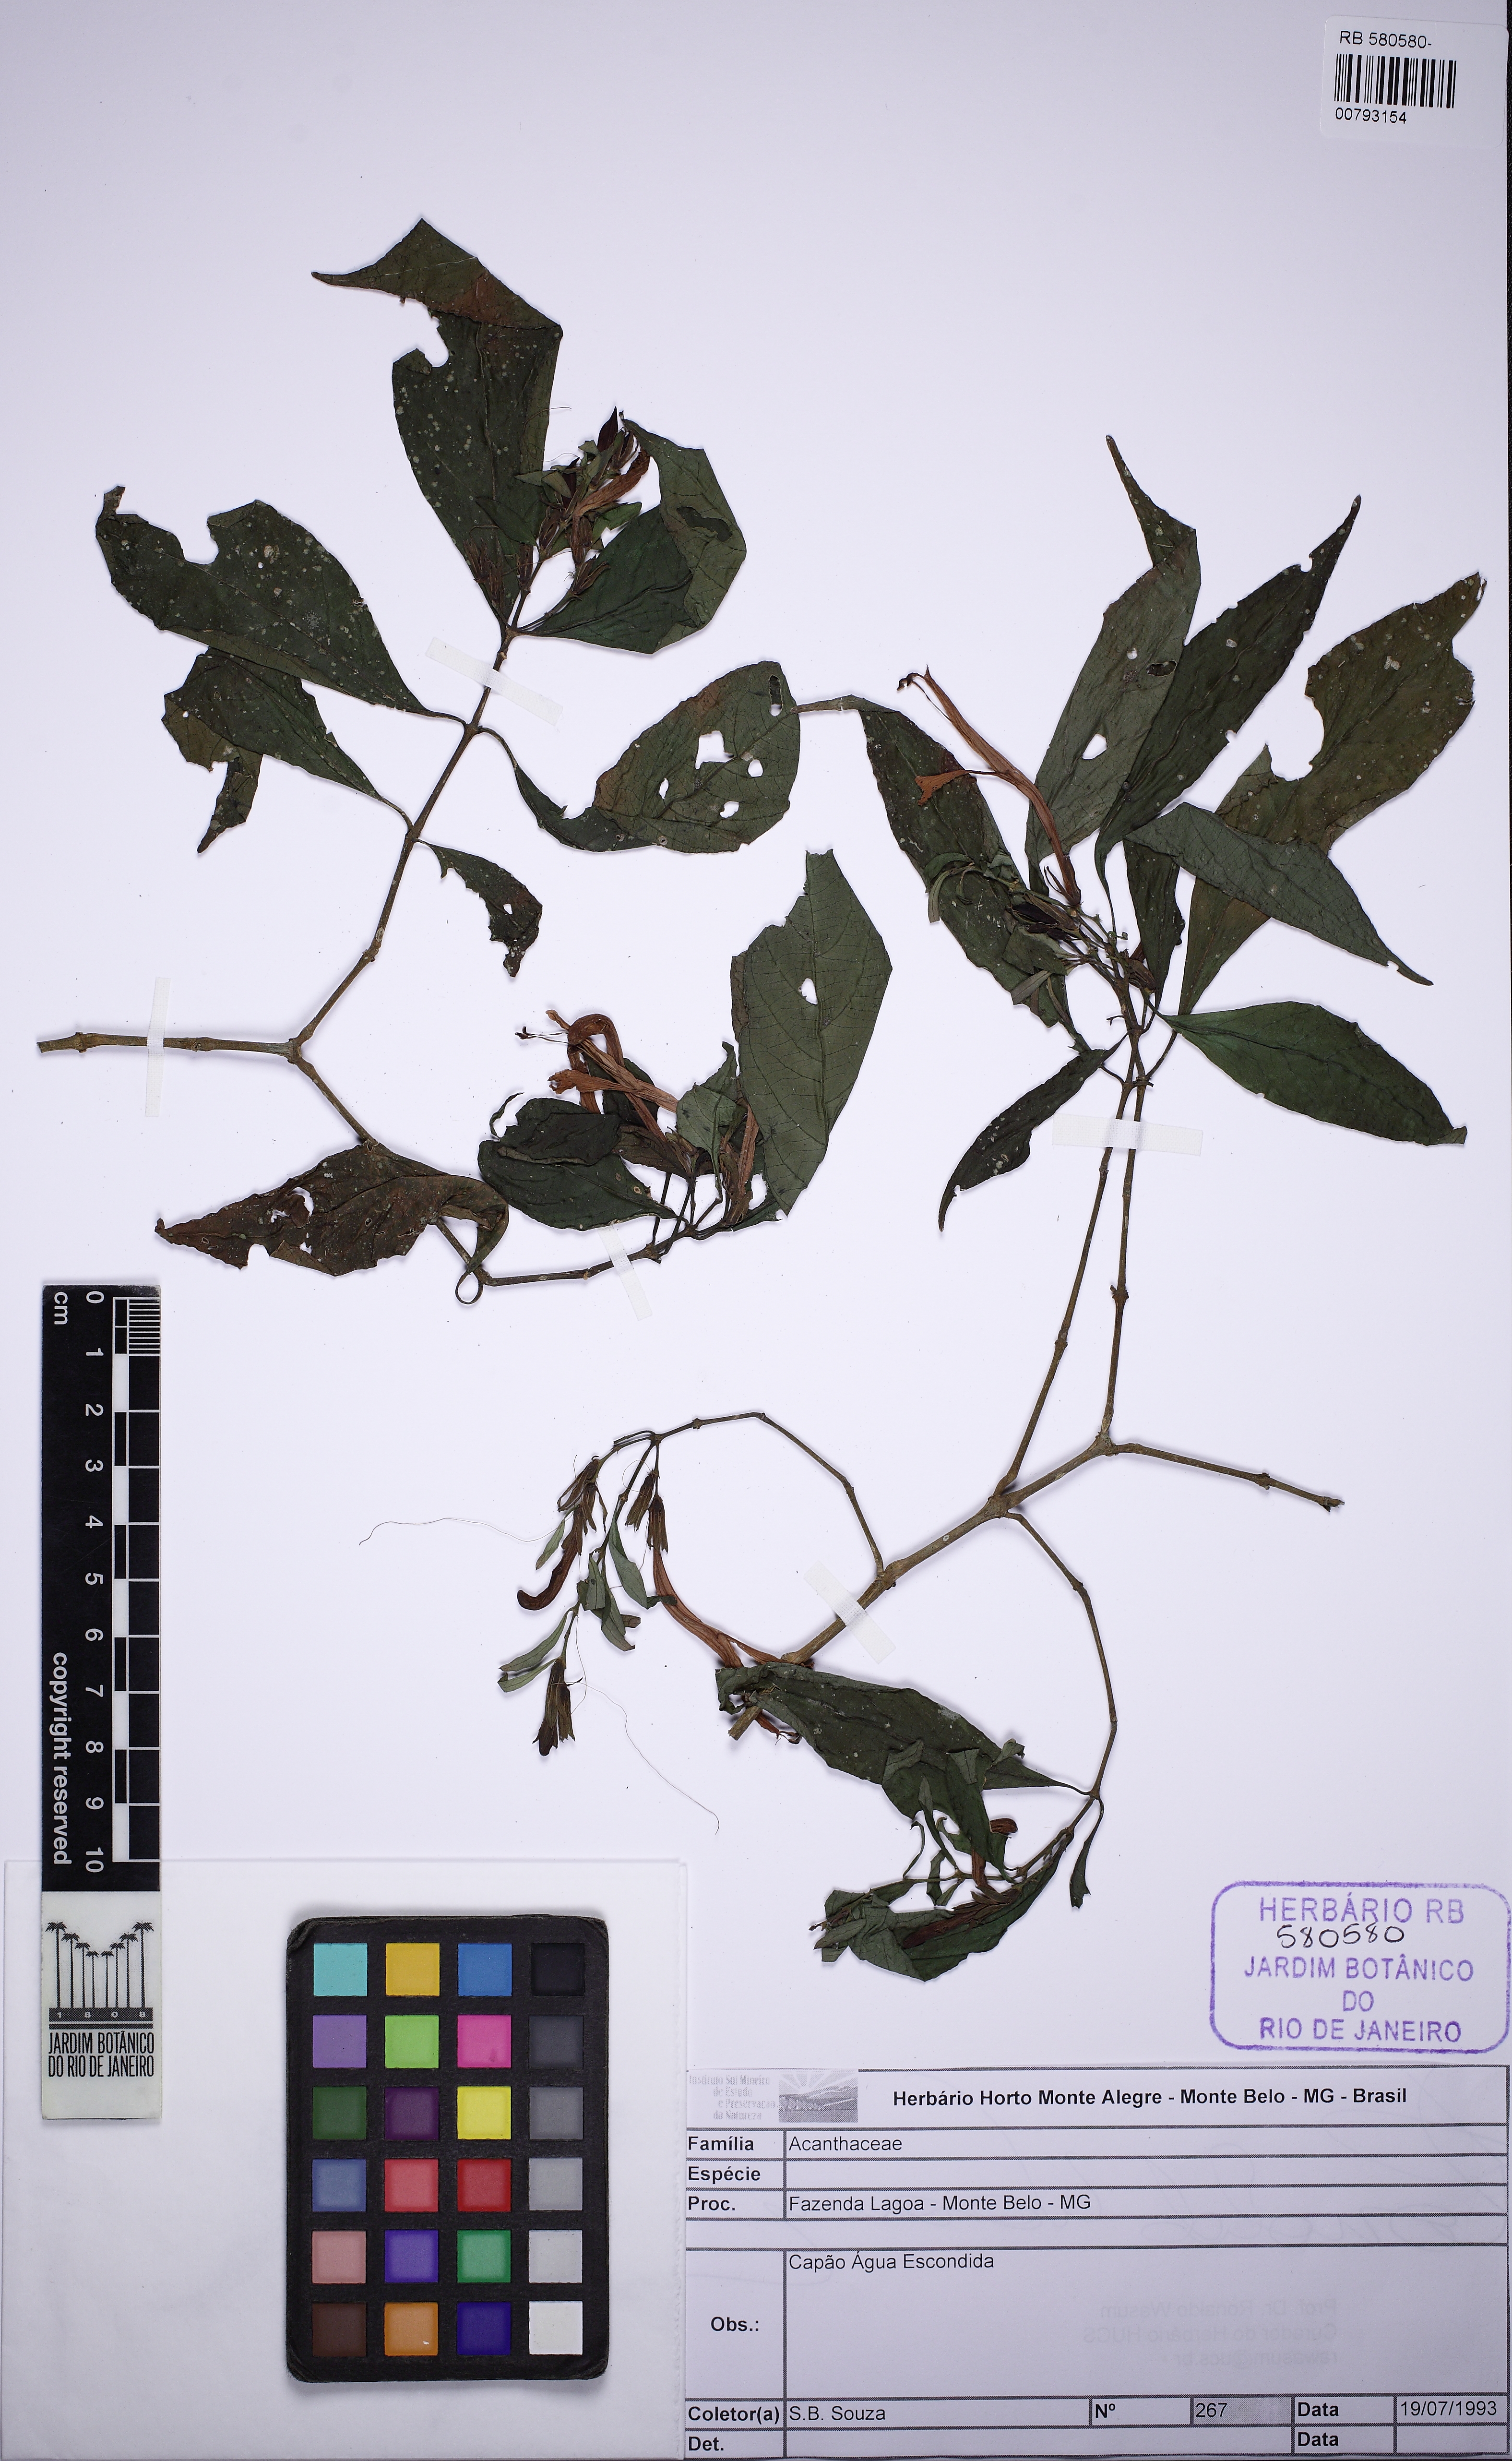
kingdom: Plantae
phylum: Tracheophyta
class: Magnoliopsida
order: Lamiales
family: Acanthaceae
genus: Justicia
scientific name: Justicia
